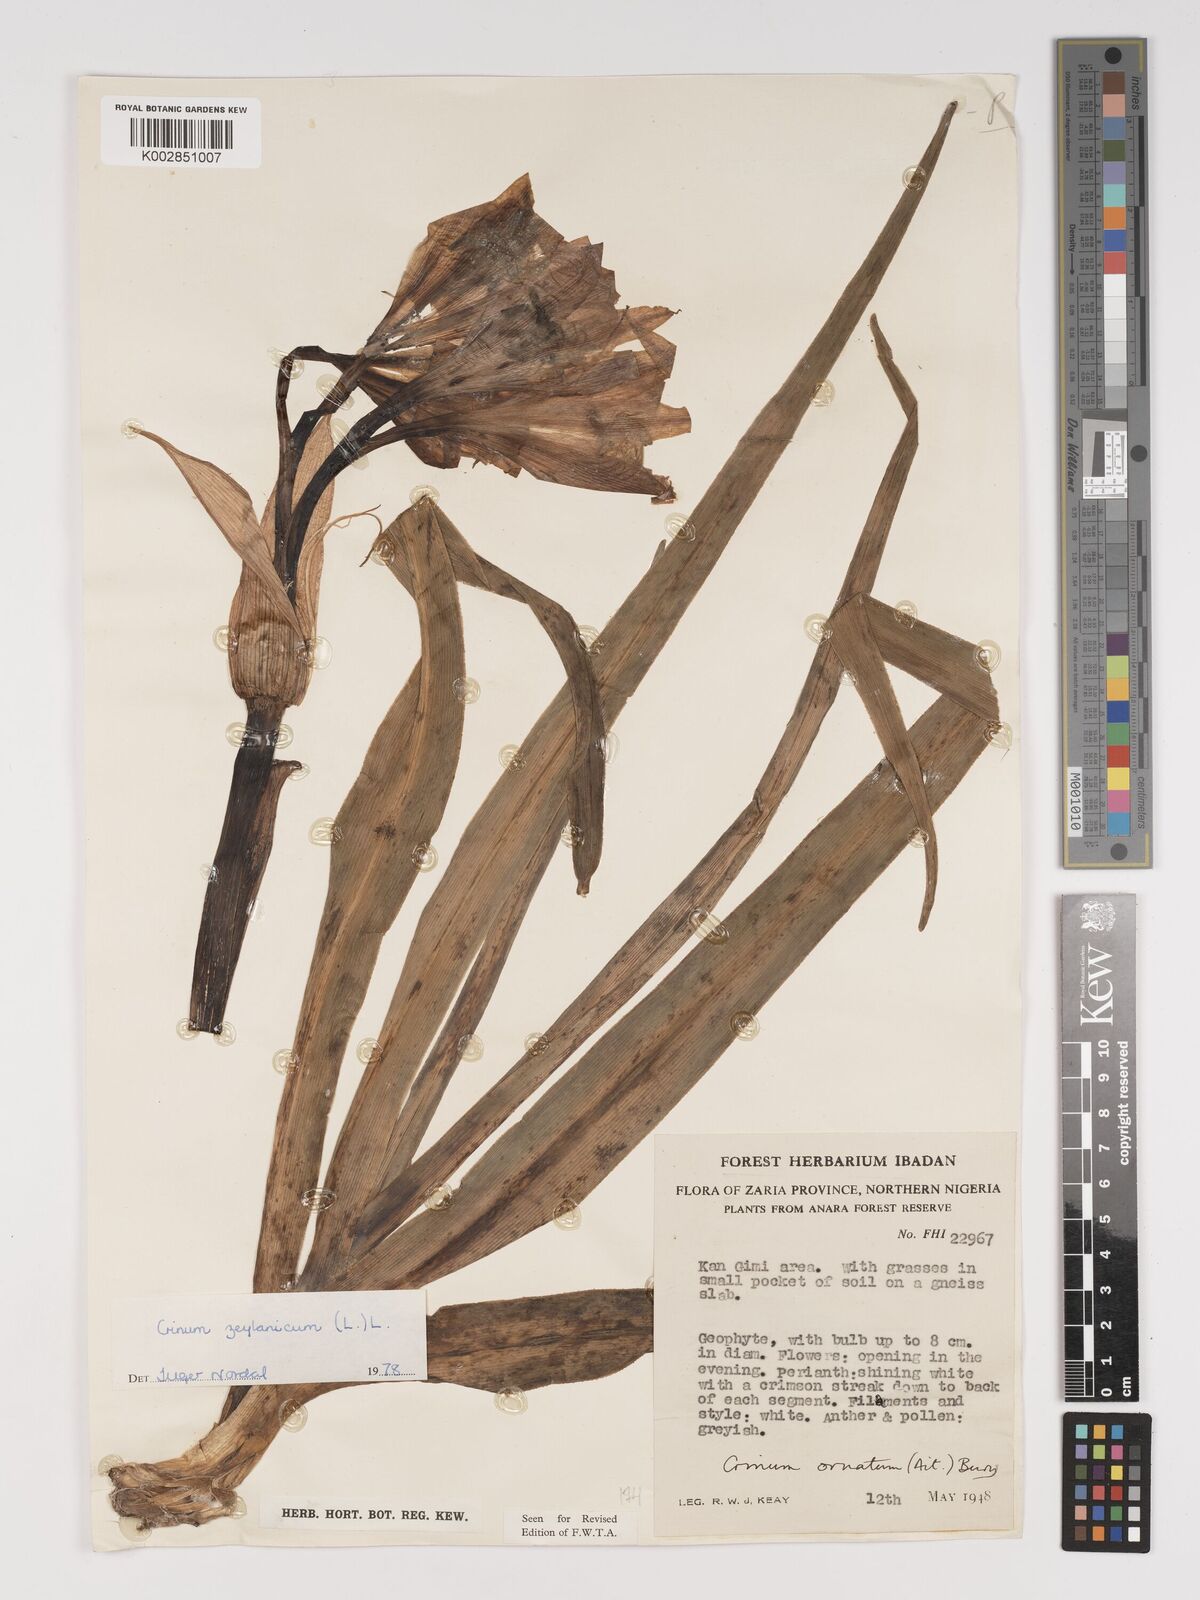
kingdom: Plantae
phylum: Tracheophyta
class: Liliopsida
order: Asparagales
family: Amaryllidaceae
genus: Crinum
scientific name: Crinum zeylanicum
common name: Ceylon swamplily
